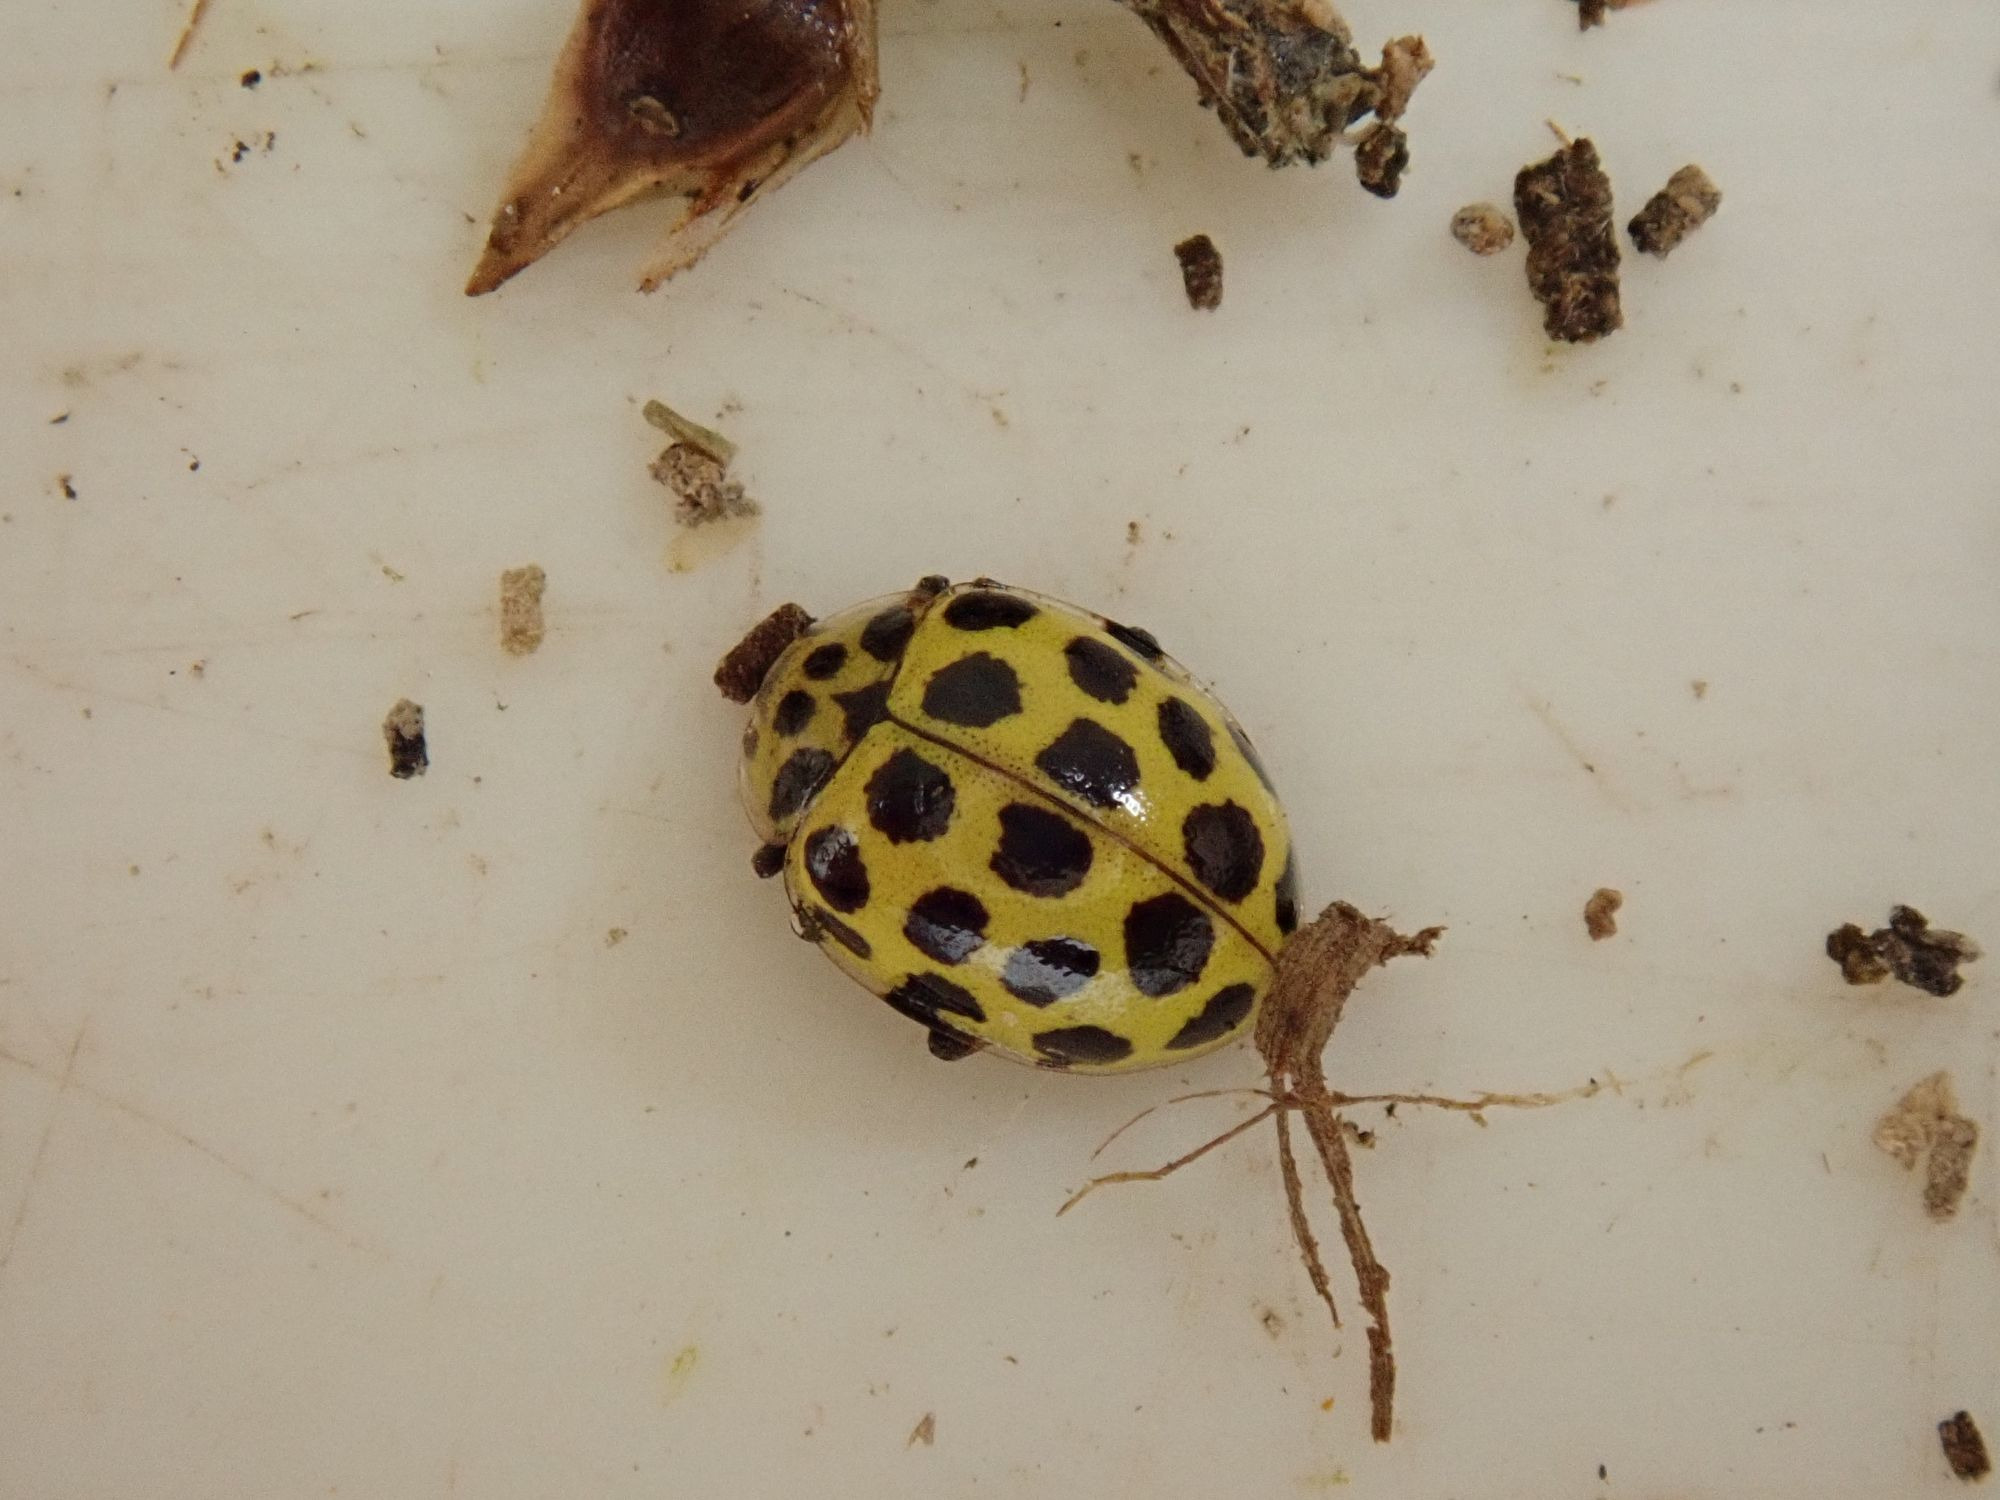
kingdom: Animalia
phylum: Arthropoda
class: Insecta
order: Coleoptera
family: Coccinellidae
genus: Psyllobora
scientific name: Psyllobora vigintiduopunctata
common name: Toogtyveplettet mariehøne
